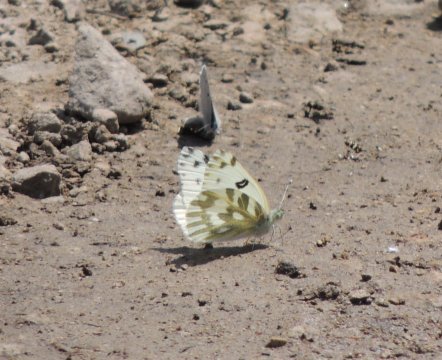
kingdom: Animalia
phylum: Arthropoda
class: Insecta
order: Lepidoptera
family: Pieridae
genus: Pontia
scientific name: Pontia beckerii
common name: Becker's White
